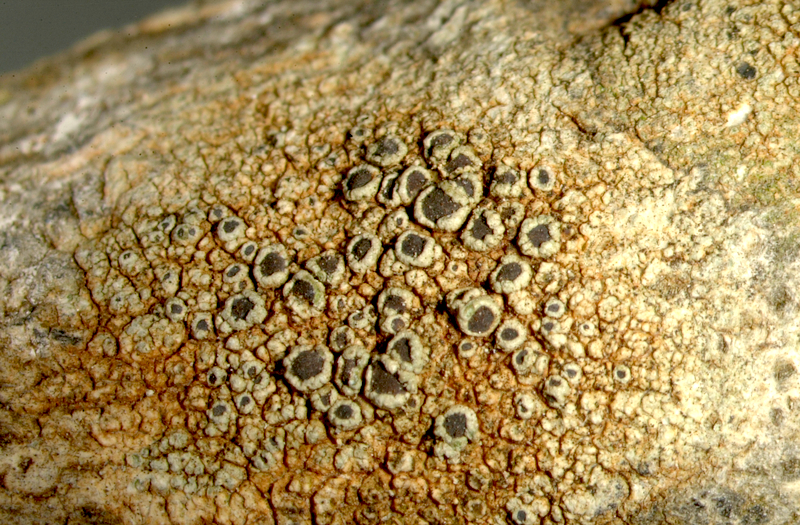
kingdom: Fungi
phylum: Ascomycota
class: Lecanoromycetes
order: Caliciales
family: Caliciaceae
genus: Buellia
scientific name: Buellia
